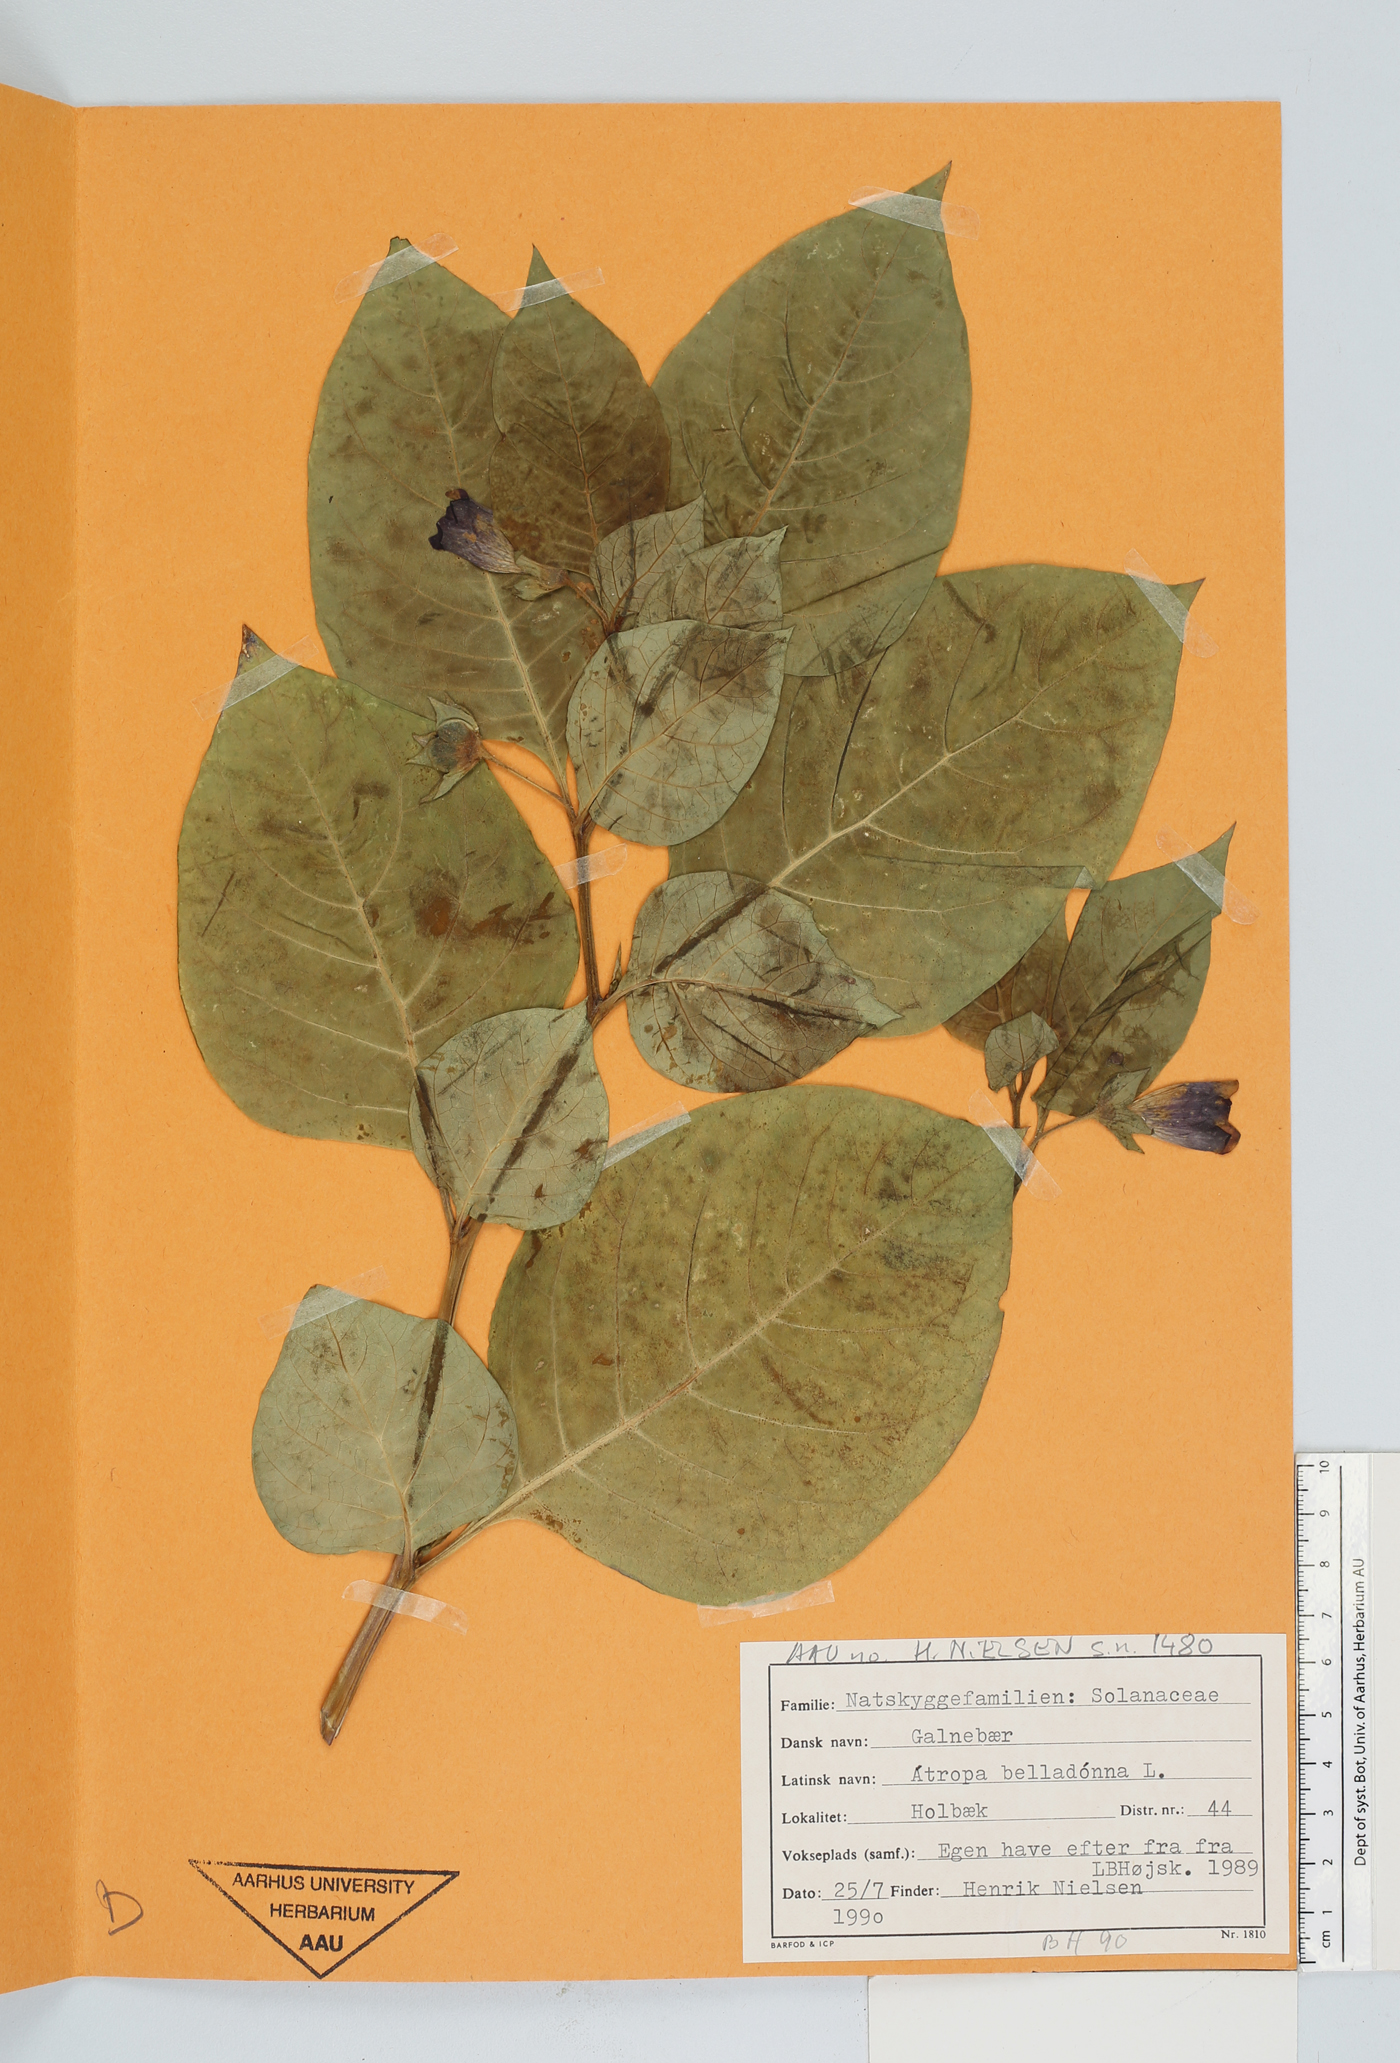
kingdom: Plantae
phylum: Tracheophyta
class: Magnoliopsida
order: Solanales
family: Solanaceae
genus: Atropa
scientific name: Atropa belladonna
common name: Deadly nightshade
